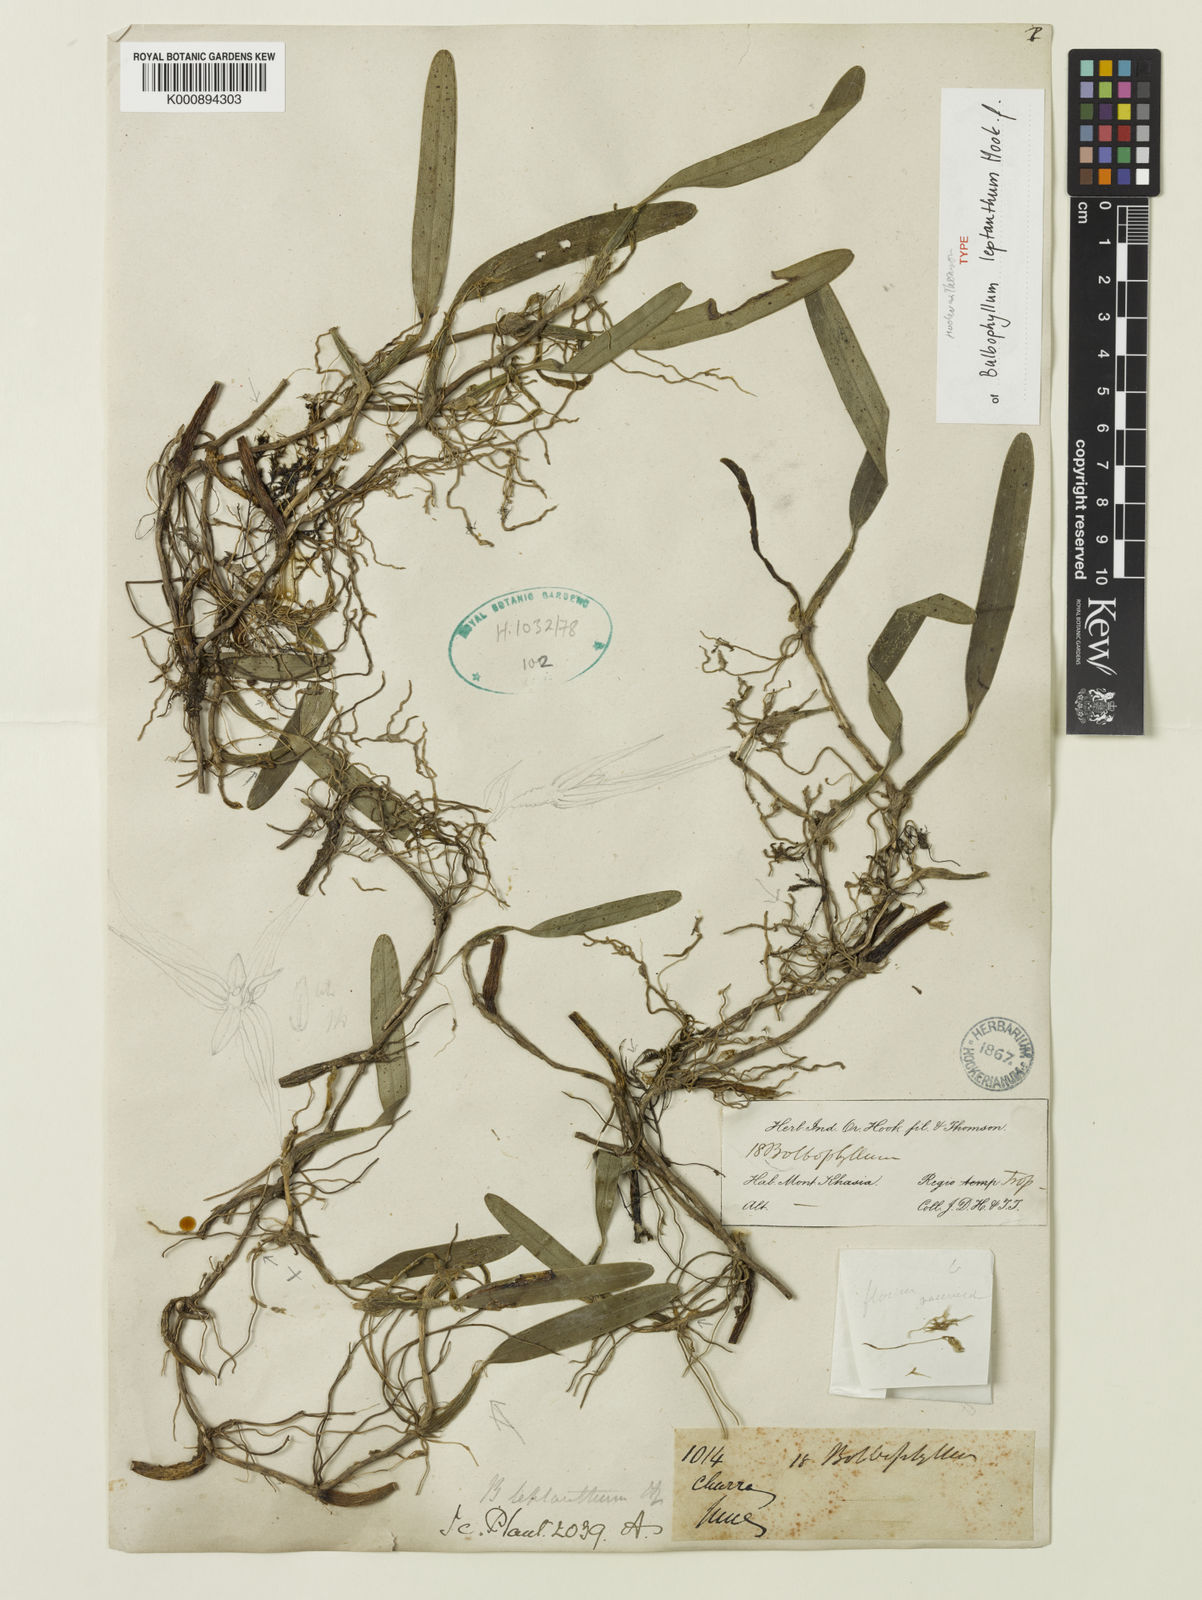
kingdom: Plantae
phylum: Tracheophyta
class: Liliopsida
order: Asparagales
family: Orchidaceae
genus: Bulbophyllum
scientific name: Bulbophyllum leptanthum
